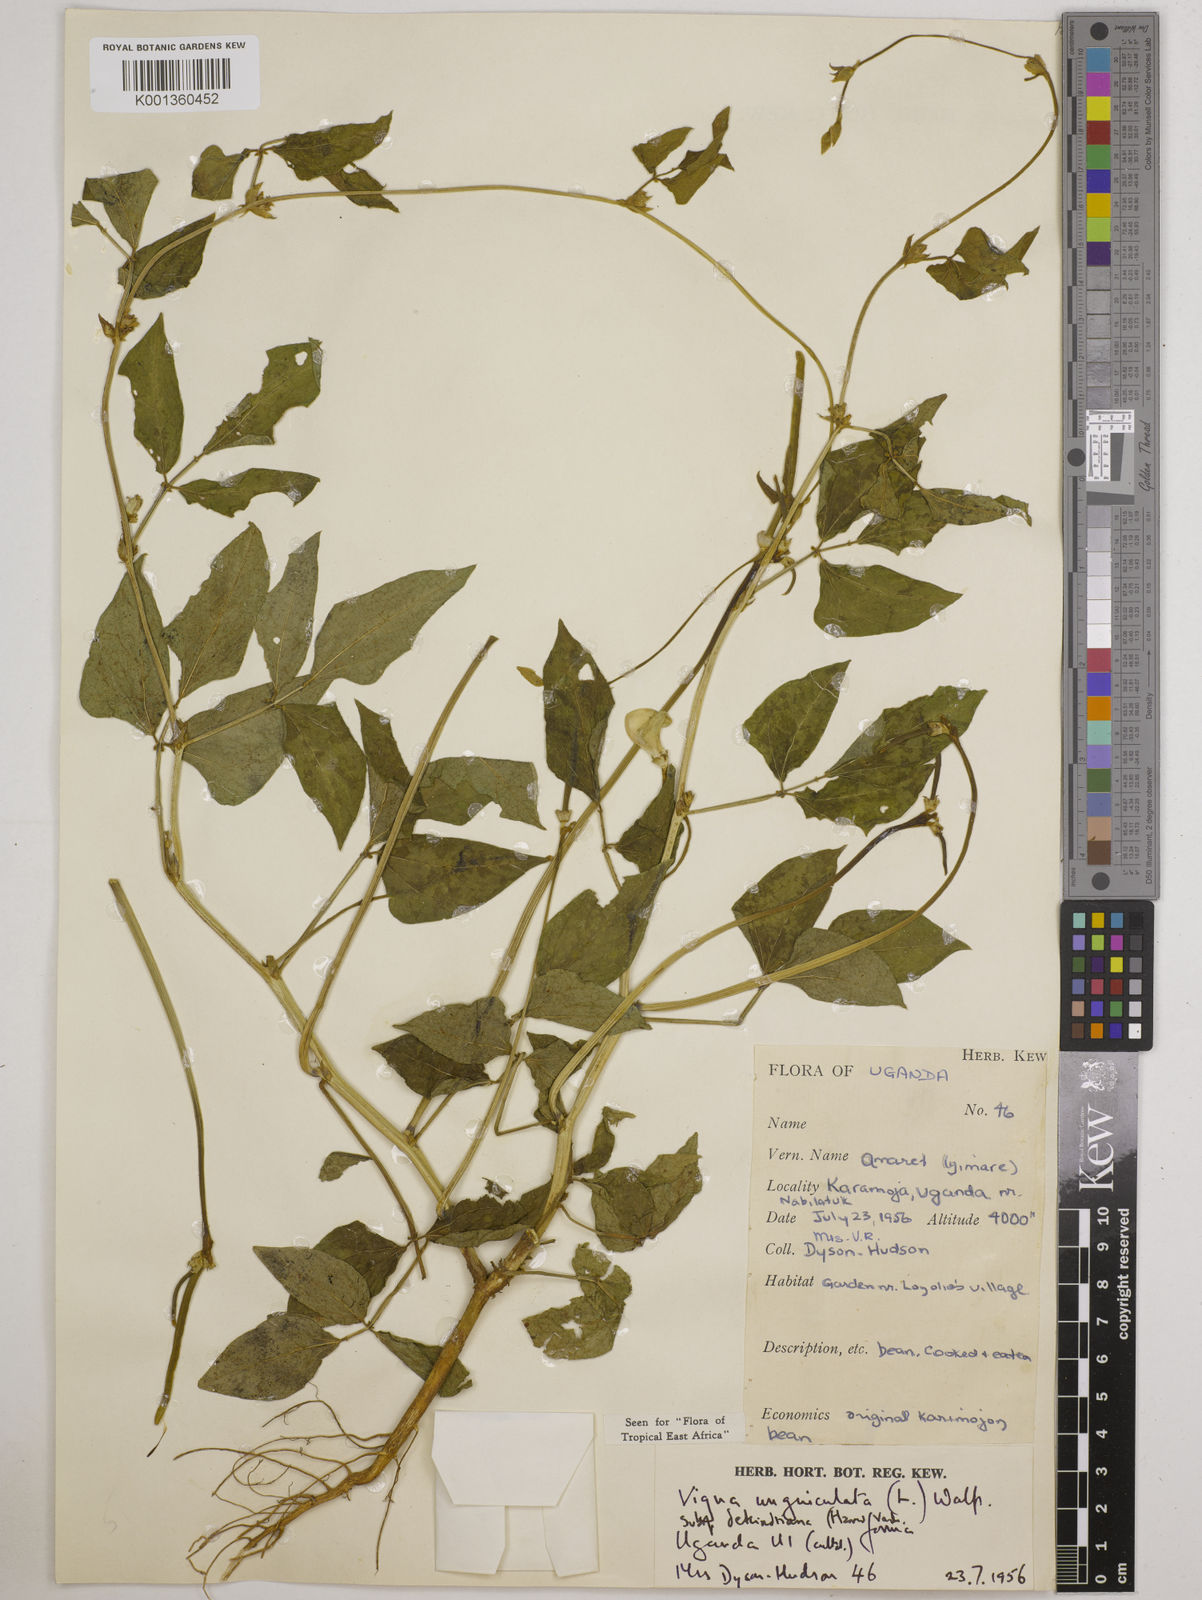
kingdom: Plantae
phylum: Tracheophyta
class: Magnoliopsida
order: Fabales
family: Fabaceae
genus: Vigna
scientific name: Vigna unguiculata
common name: Cowpea
